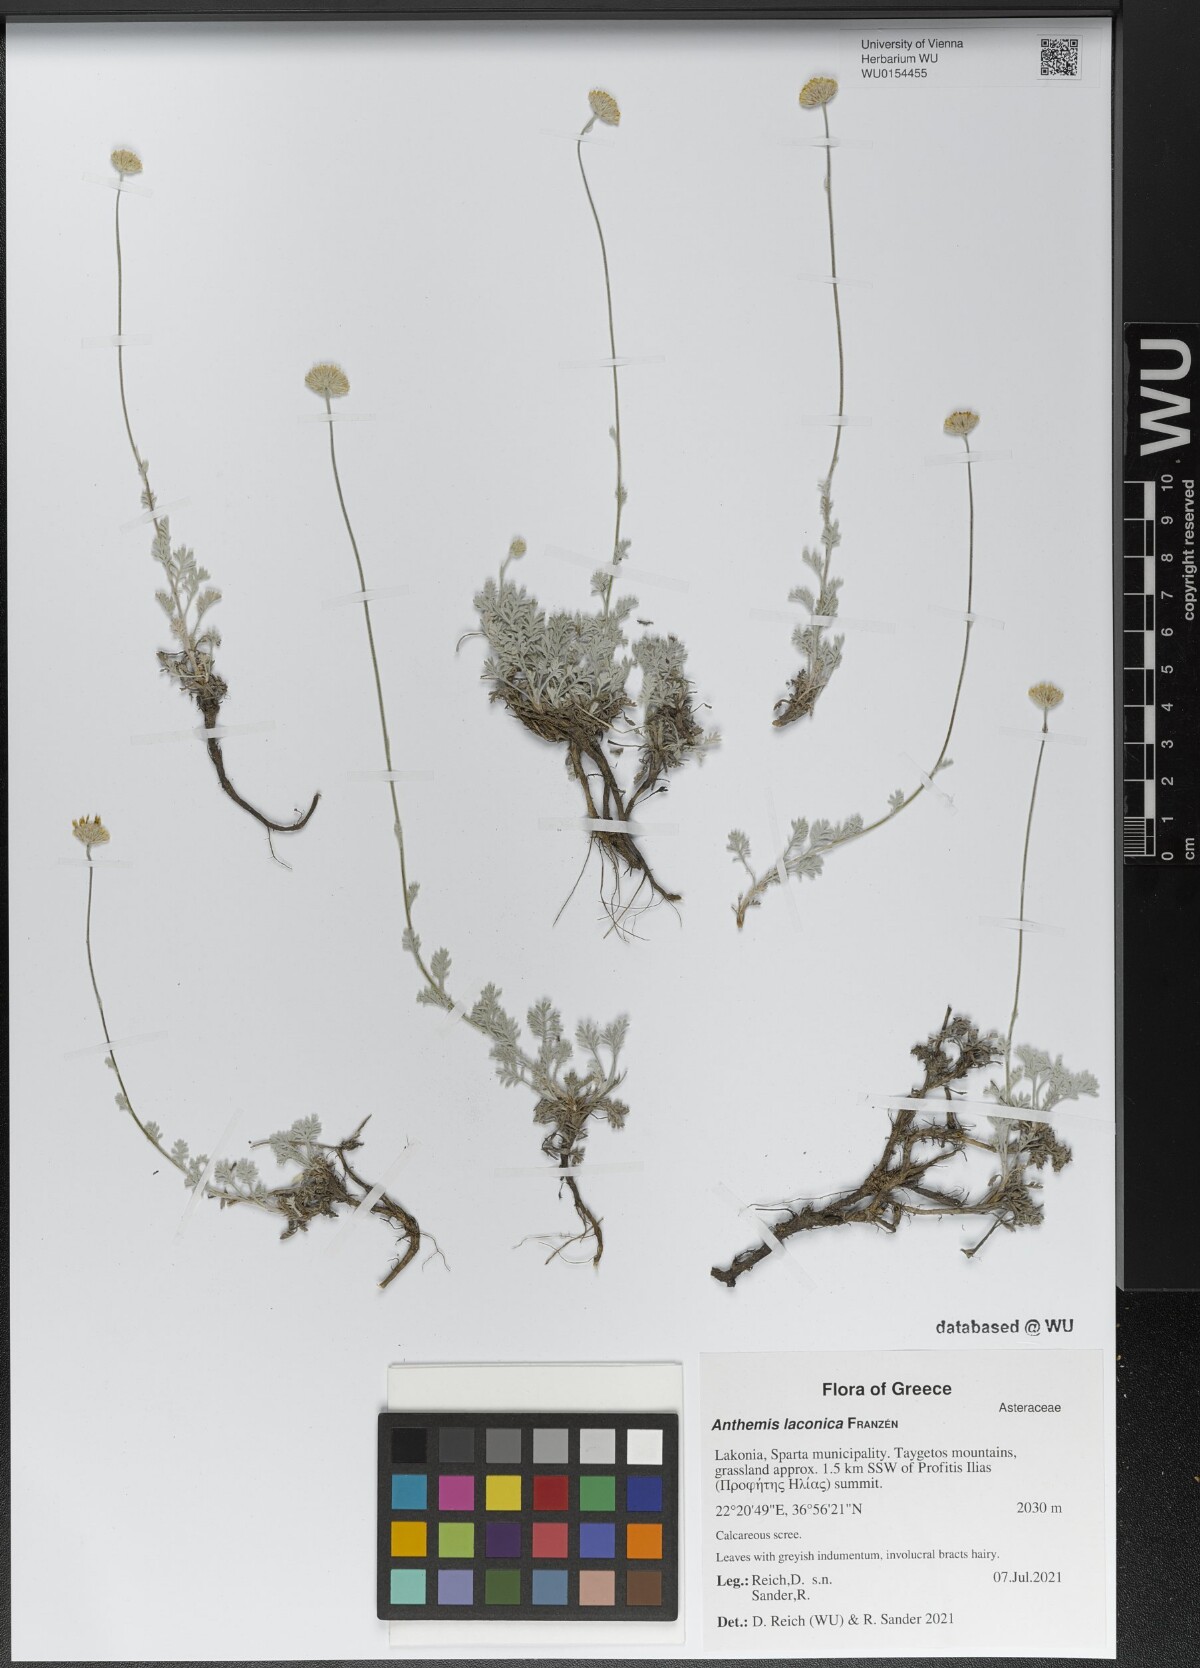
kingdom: Plantae
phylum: Tracheophyta
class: Magnoliopsida
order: Asterales
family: Asteraceae
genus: Anthemis
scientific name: Anthemis laconica
